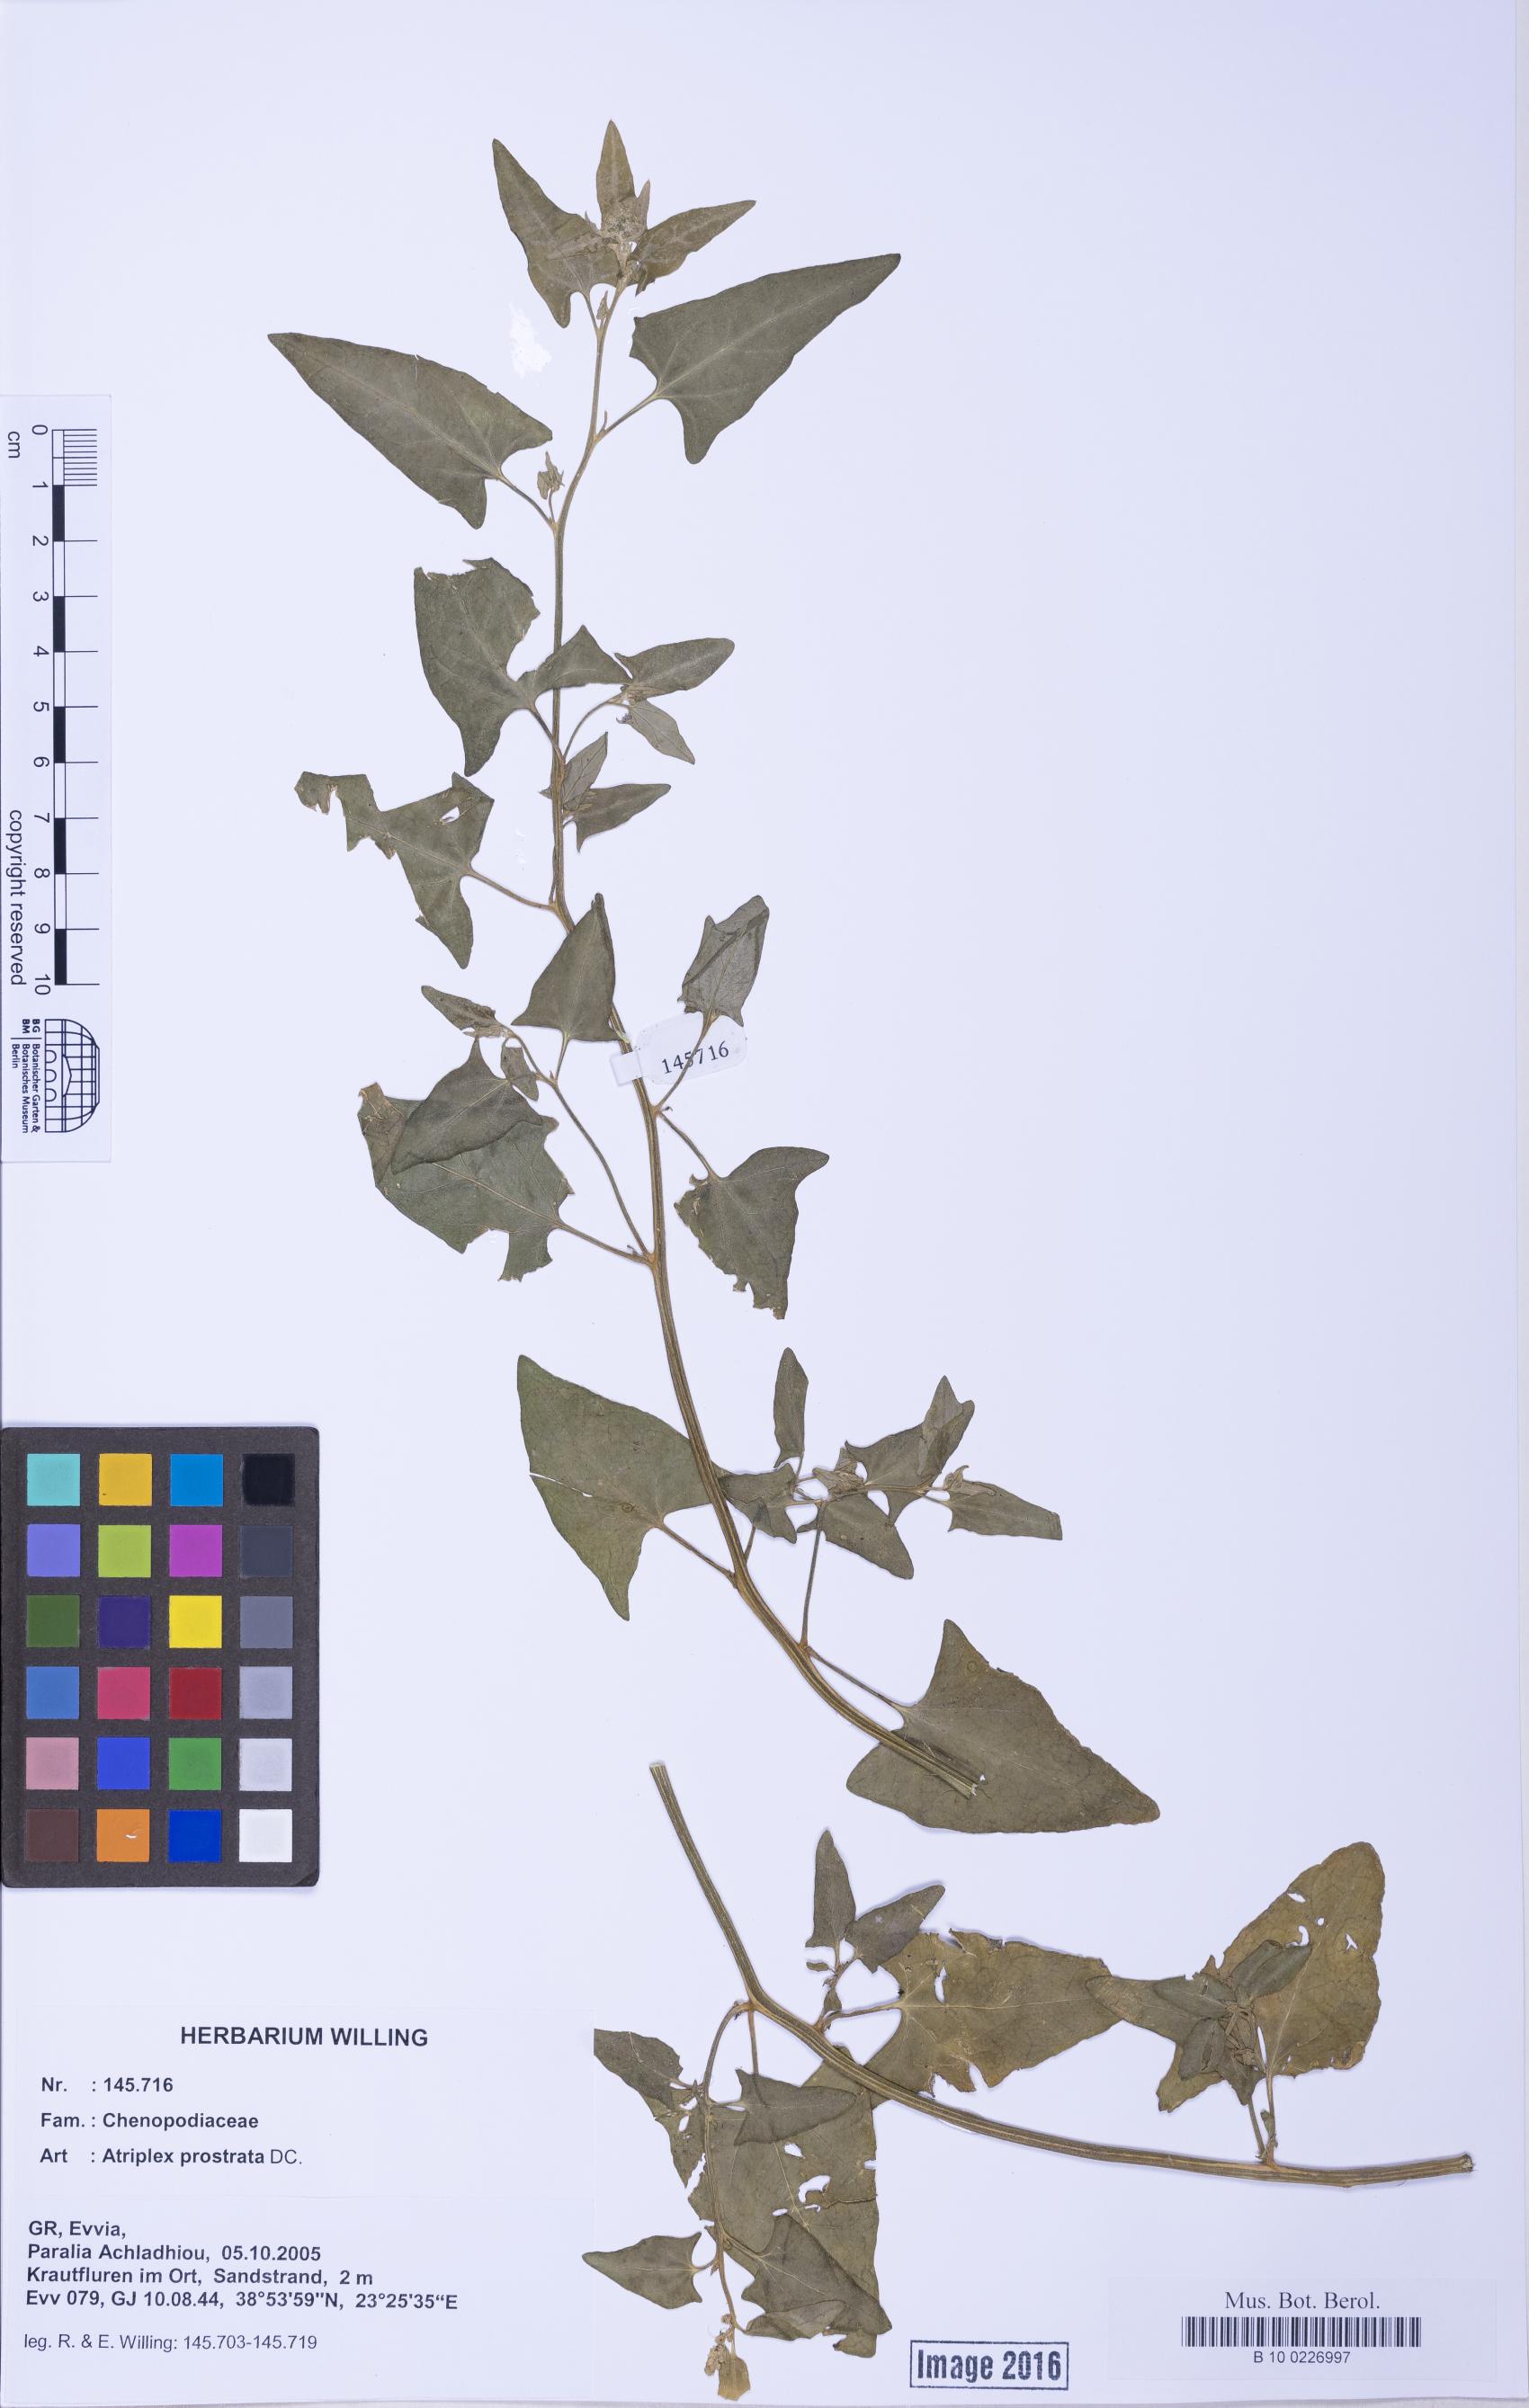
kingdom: Plantae
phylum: Tracheophyta
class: Magnoliopsida
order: Caryophyllales
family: Amaranthaceae
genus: Atriplex
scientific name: Atriplex prostrata
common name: Spear-leaved orache
